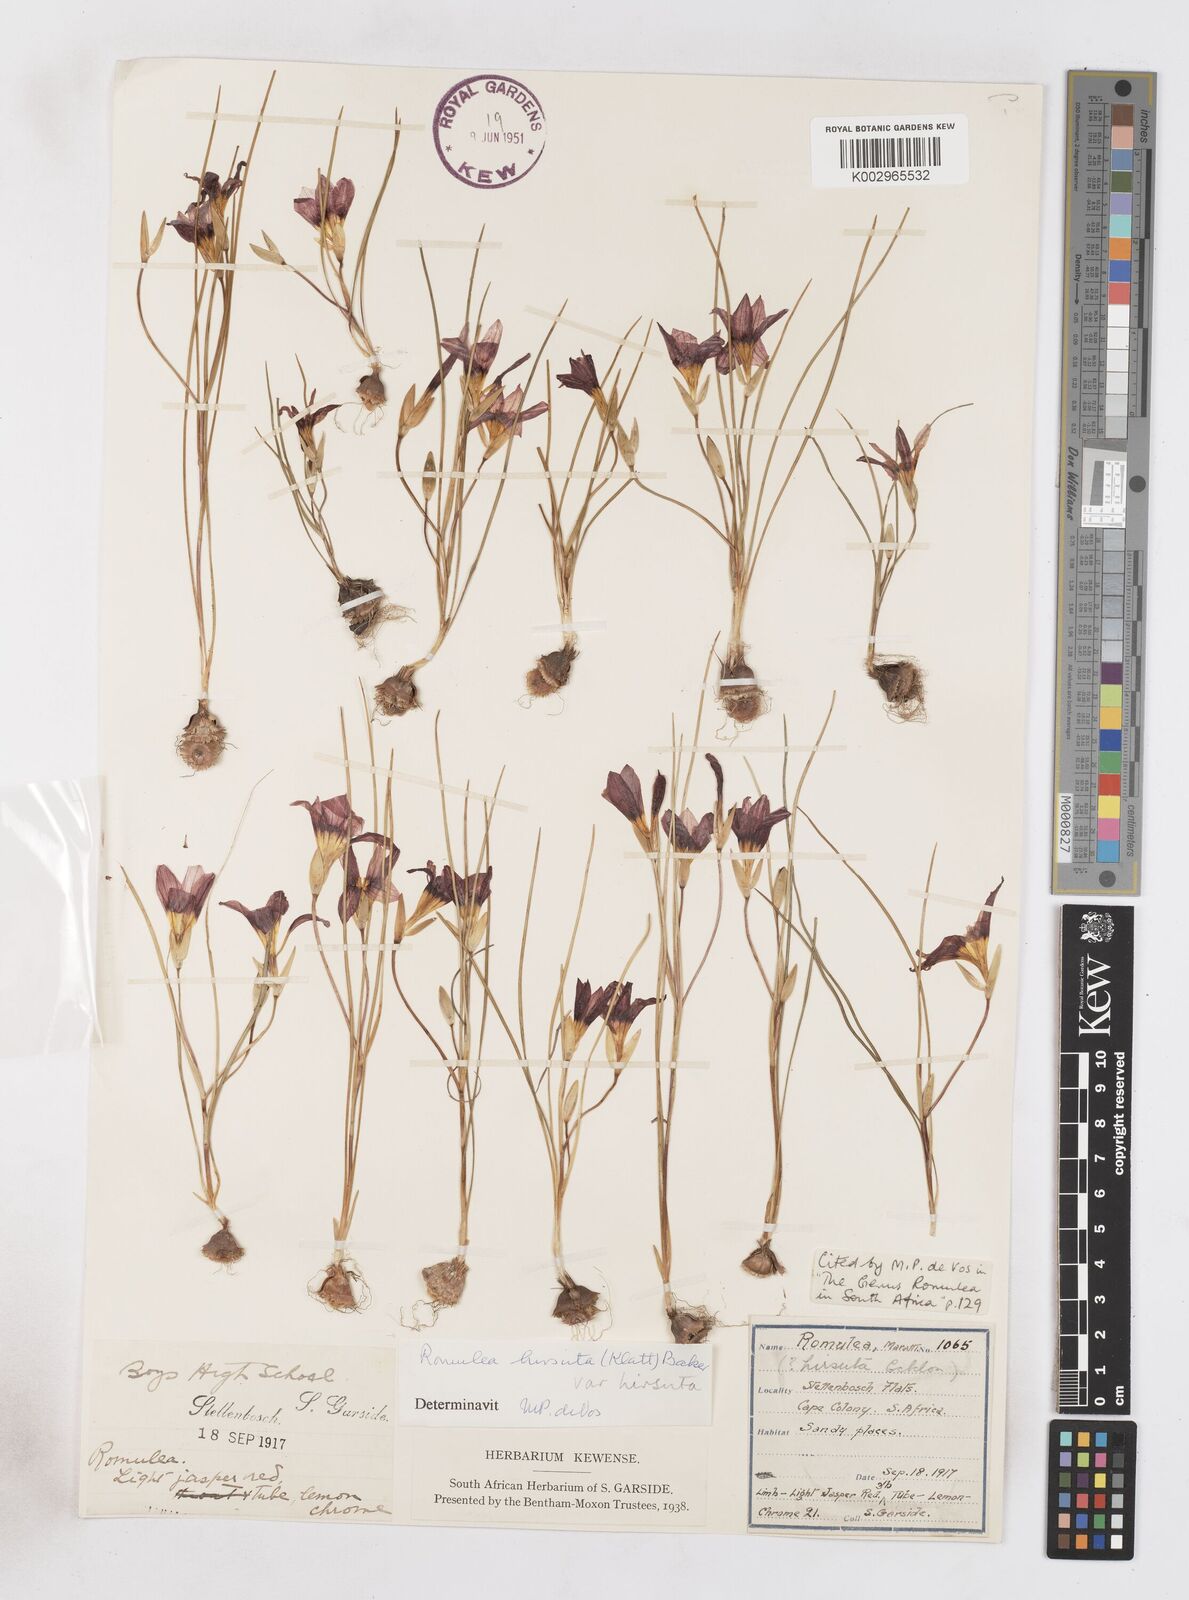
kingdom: Plantae
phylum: Tracheophyta
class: Liliopsida
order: Asparagales
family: Iridaceae
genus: Romulea
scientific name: Romulea hirsuta
